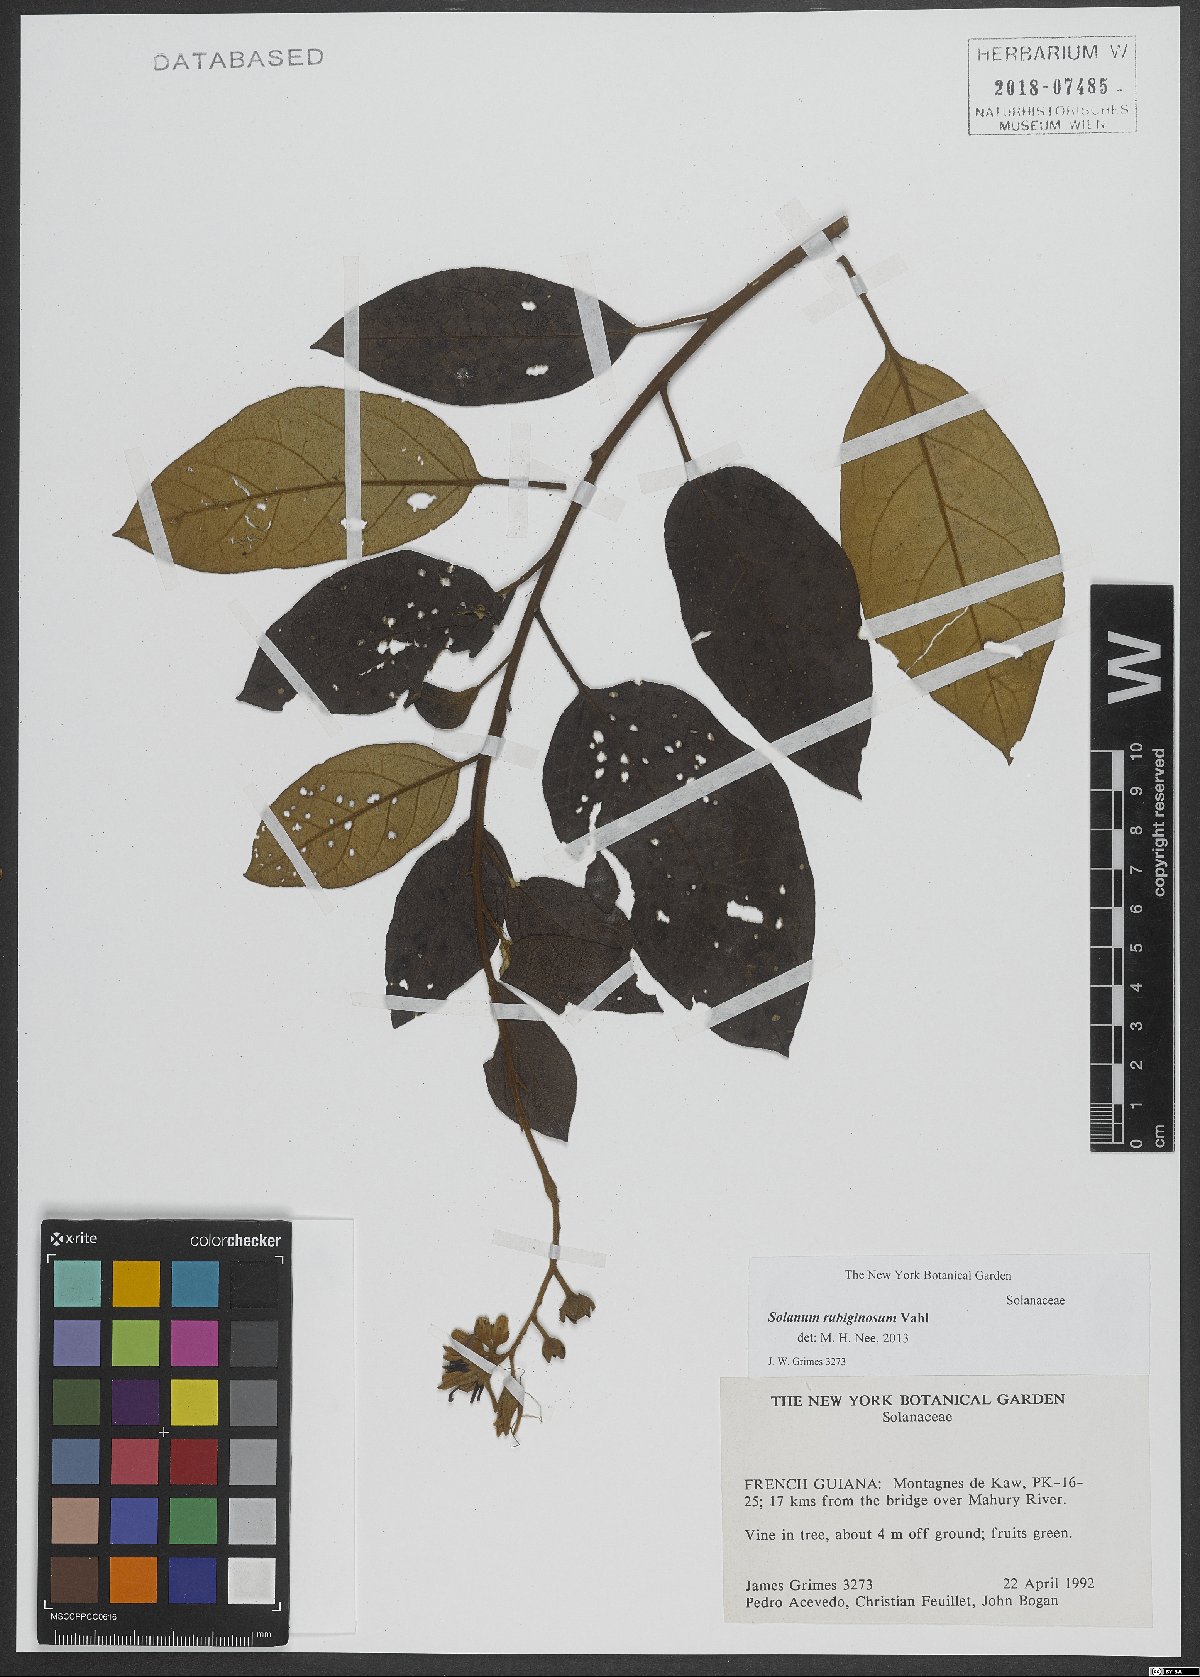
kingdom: Plantae
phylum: Tracheophyta
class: Magnoliopsida
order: Solanales
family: Solanaceae
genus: Solanum
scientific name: Solanum rubiginosum
